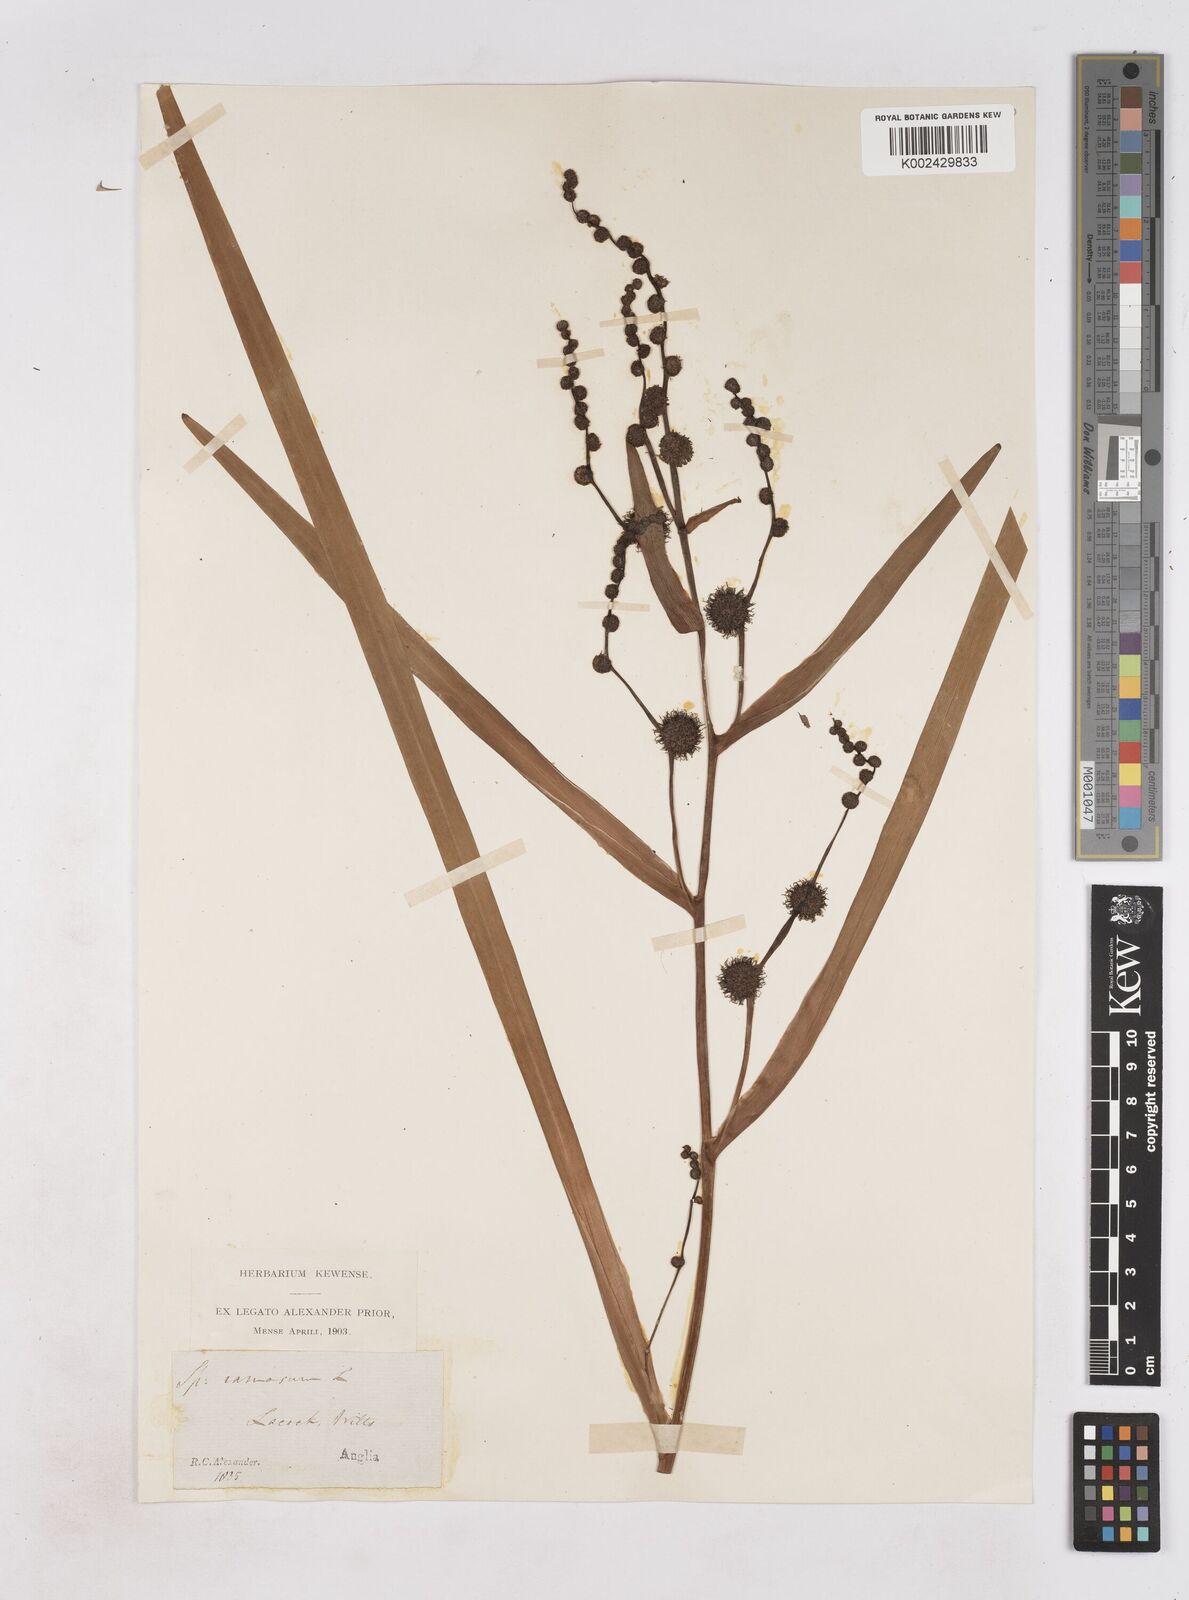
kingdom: Plantae
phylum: Tracheophyta
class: Liliopsida
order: Poales
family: Typhaceae
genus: Sparganium
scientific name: Sparganium erectum
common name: Branched bur-reed
